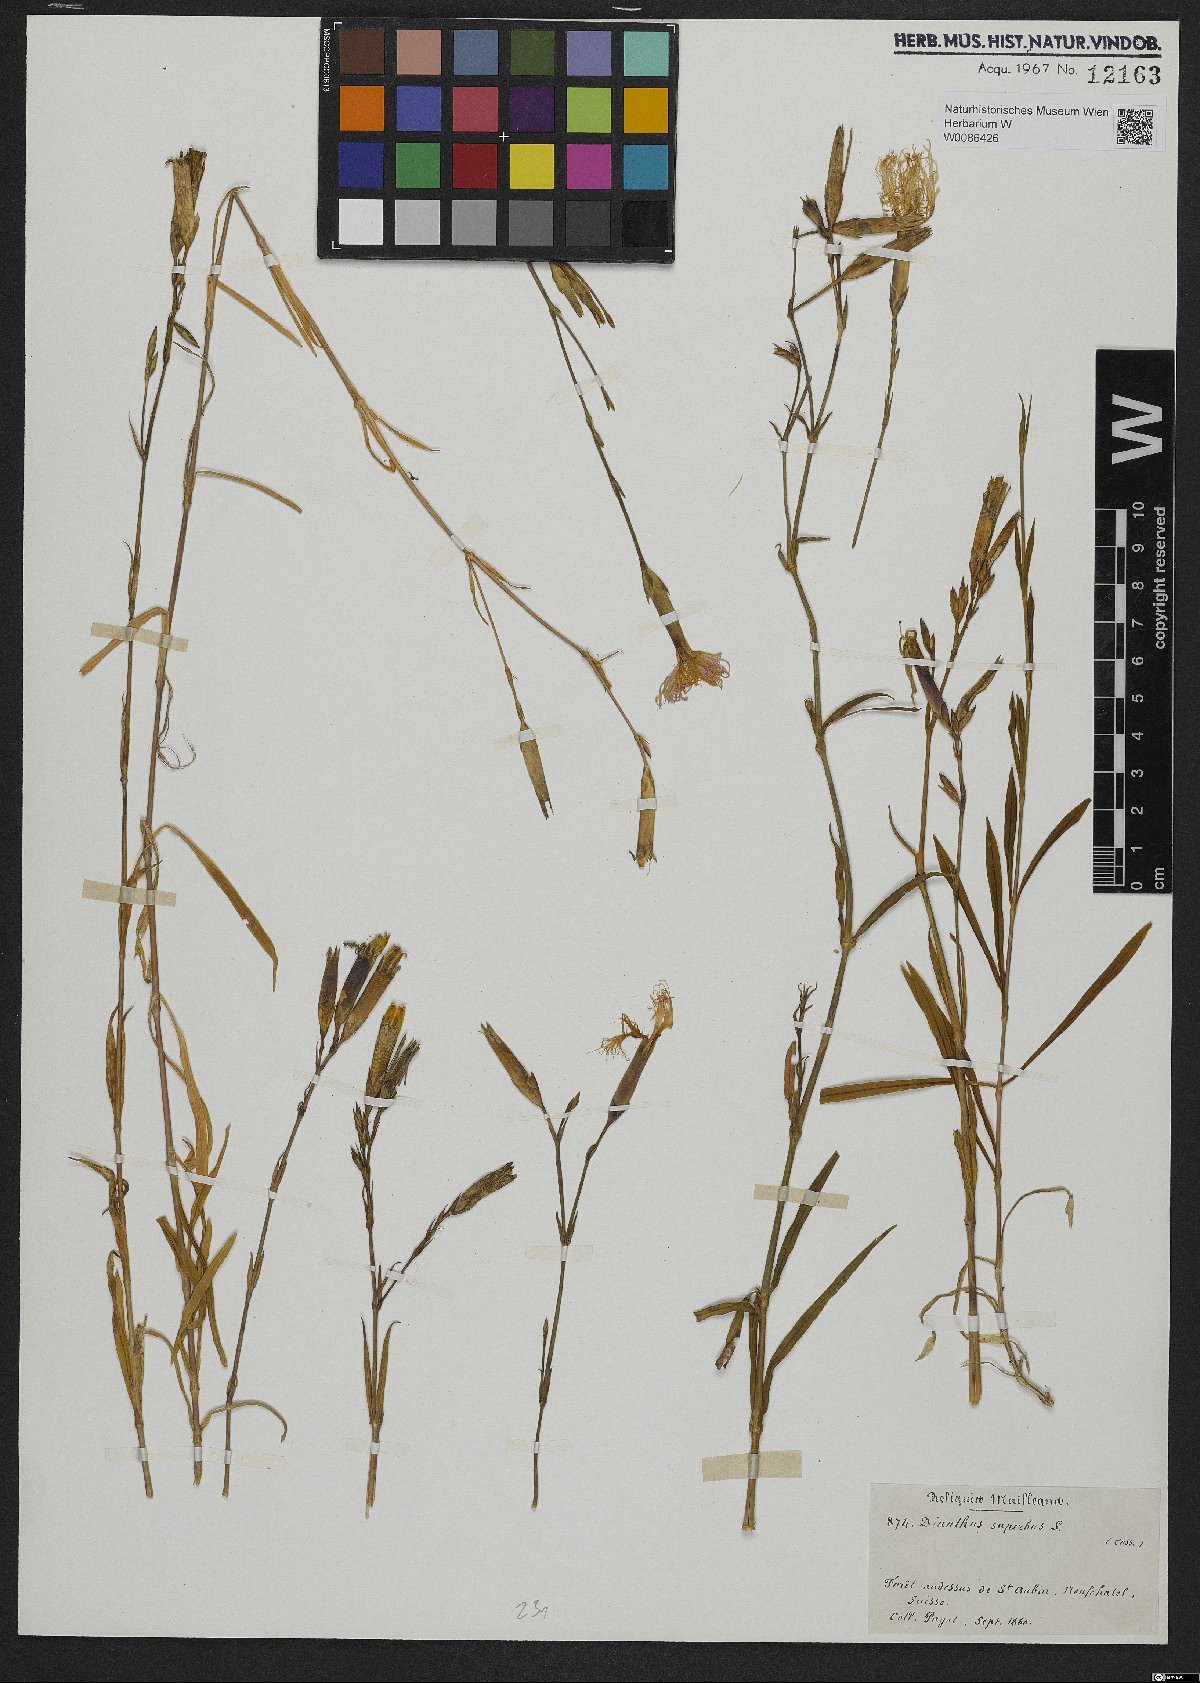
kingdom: Plantae
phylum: Tracheophyta
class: Magnoliopsida
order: Caryophyllales
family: Caryophyllaceae
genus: Dianthus
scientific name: Dianthus superbus
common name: Fringed pink
